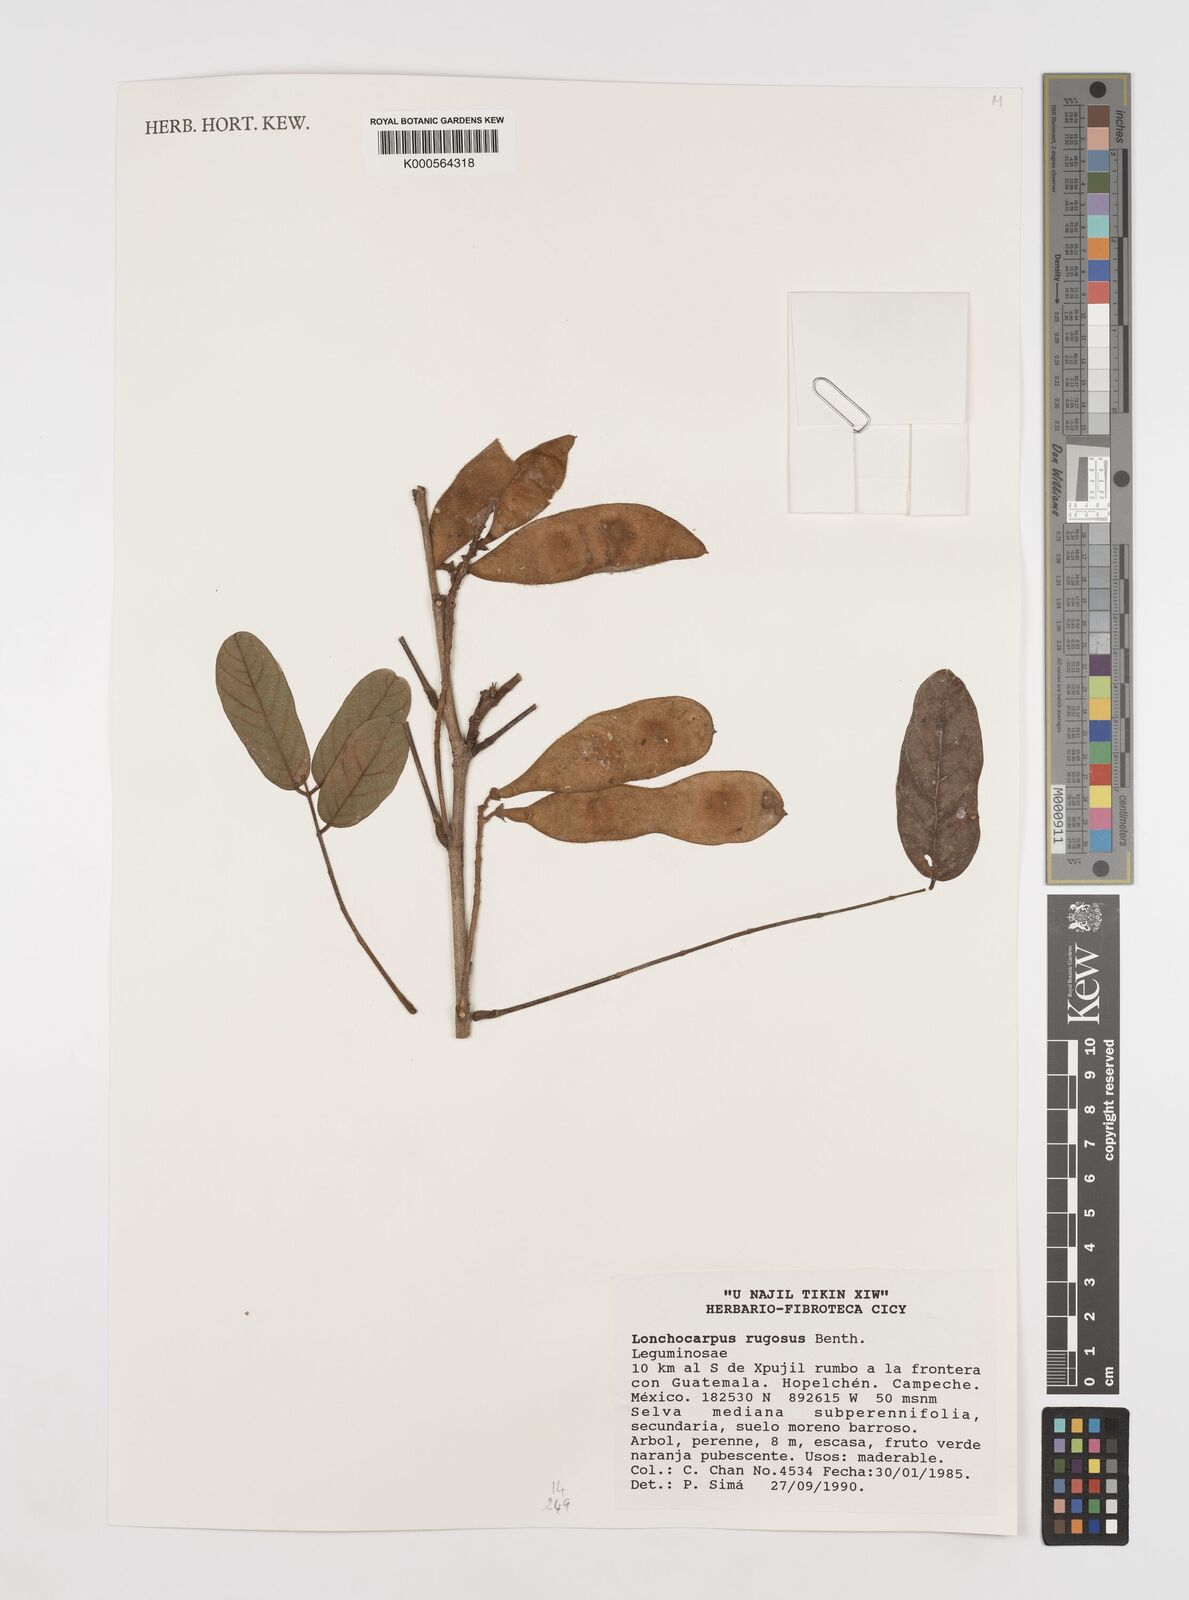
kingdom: Plantae
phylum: Tracheophyta
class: Magnoliopsida
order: Fabales
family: Fabaceae
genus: Lonchocarpus
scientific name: Lonchocarpus rugosus
